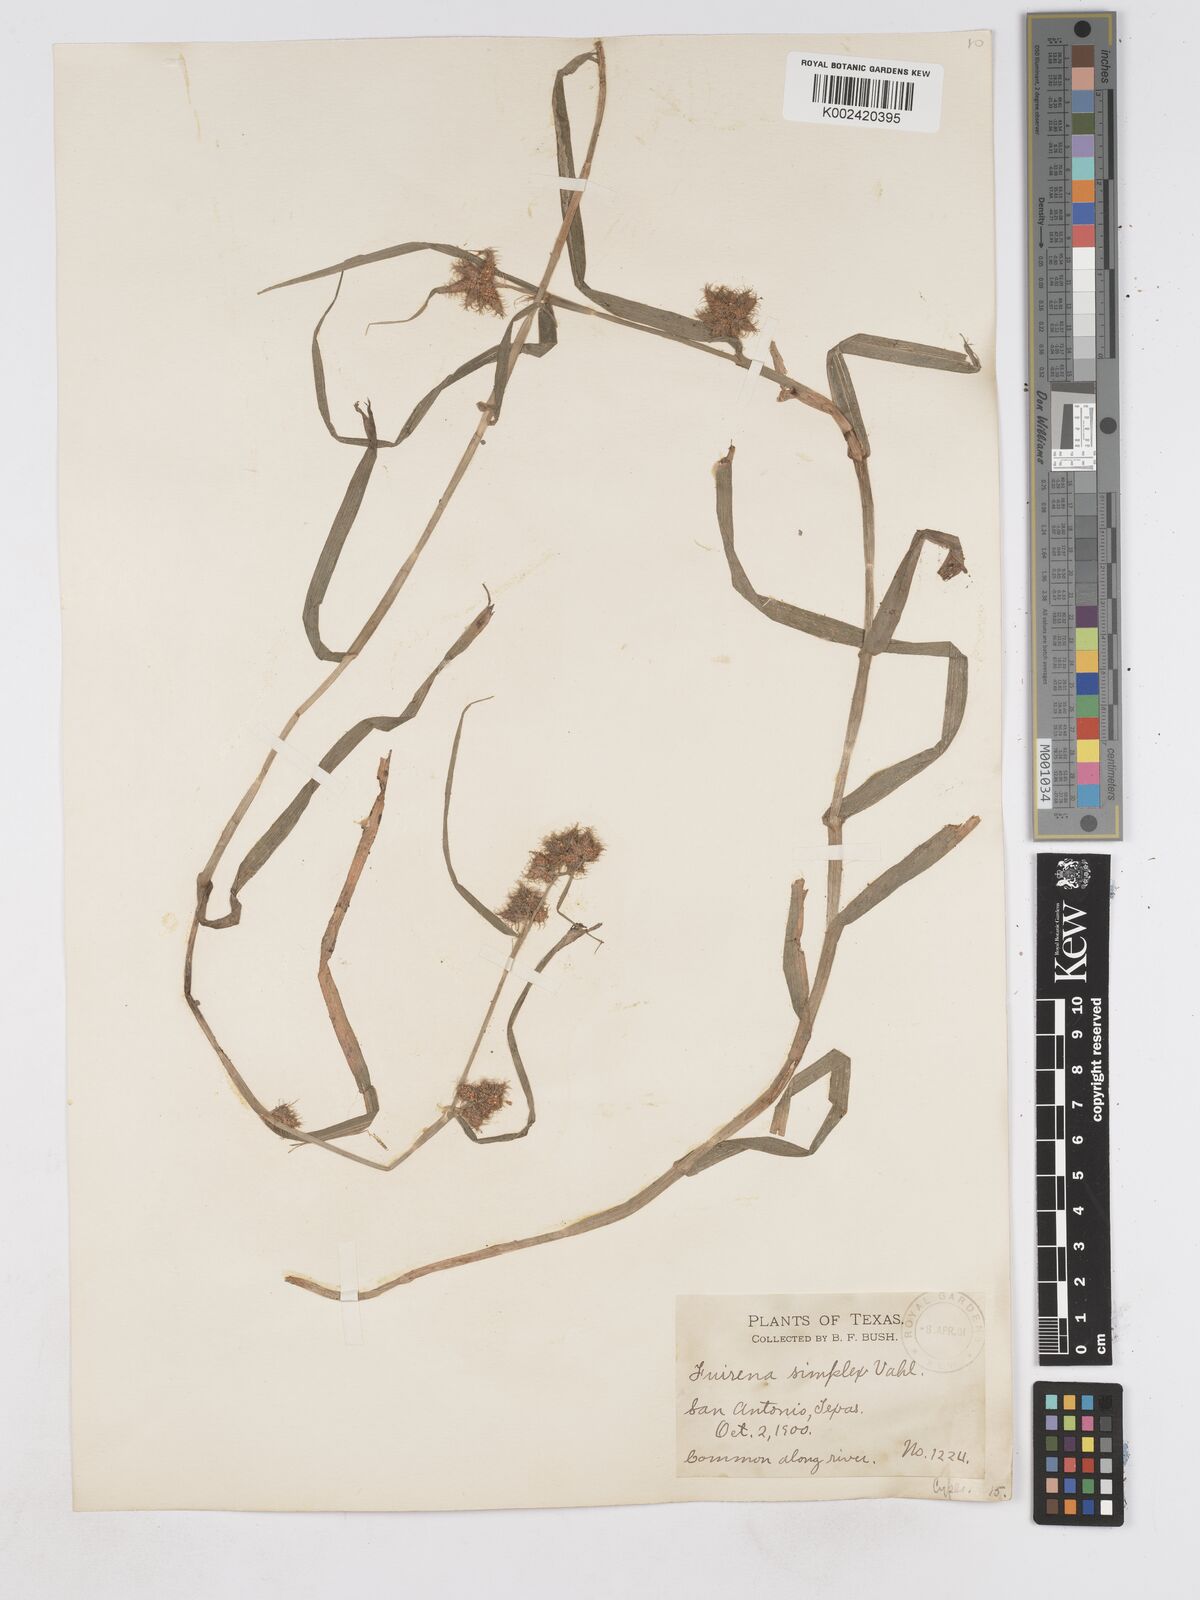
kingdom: Plantae
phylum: Tracheophyta
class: Liliopsida
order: Poales
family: Cyperaceae
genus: Fuirena
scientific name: Fuirena simplex
